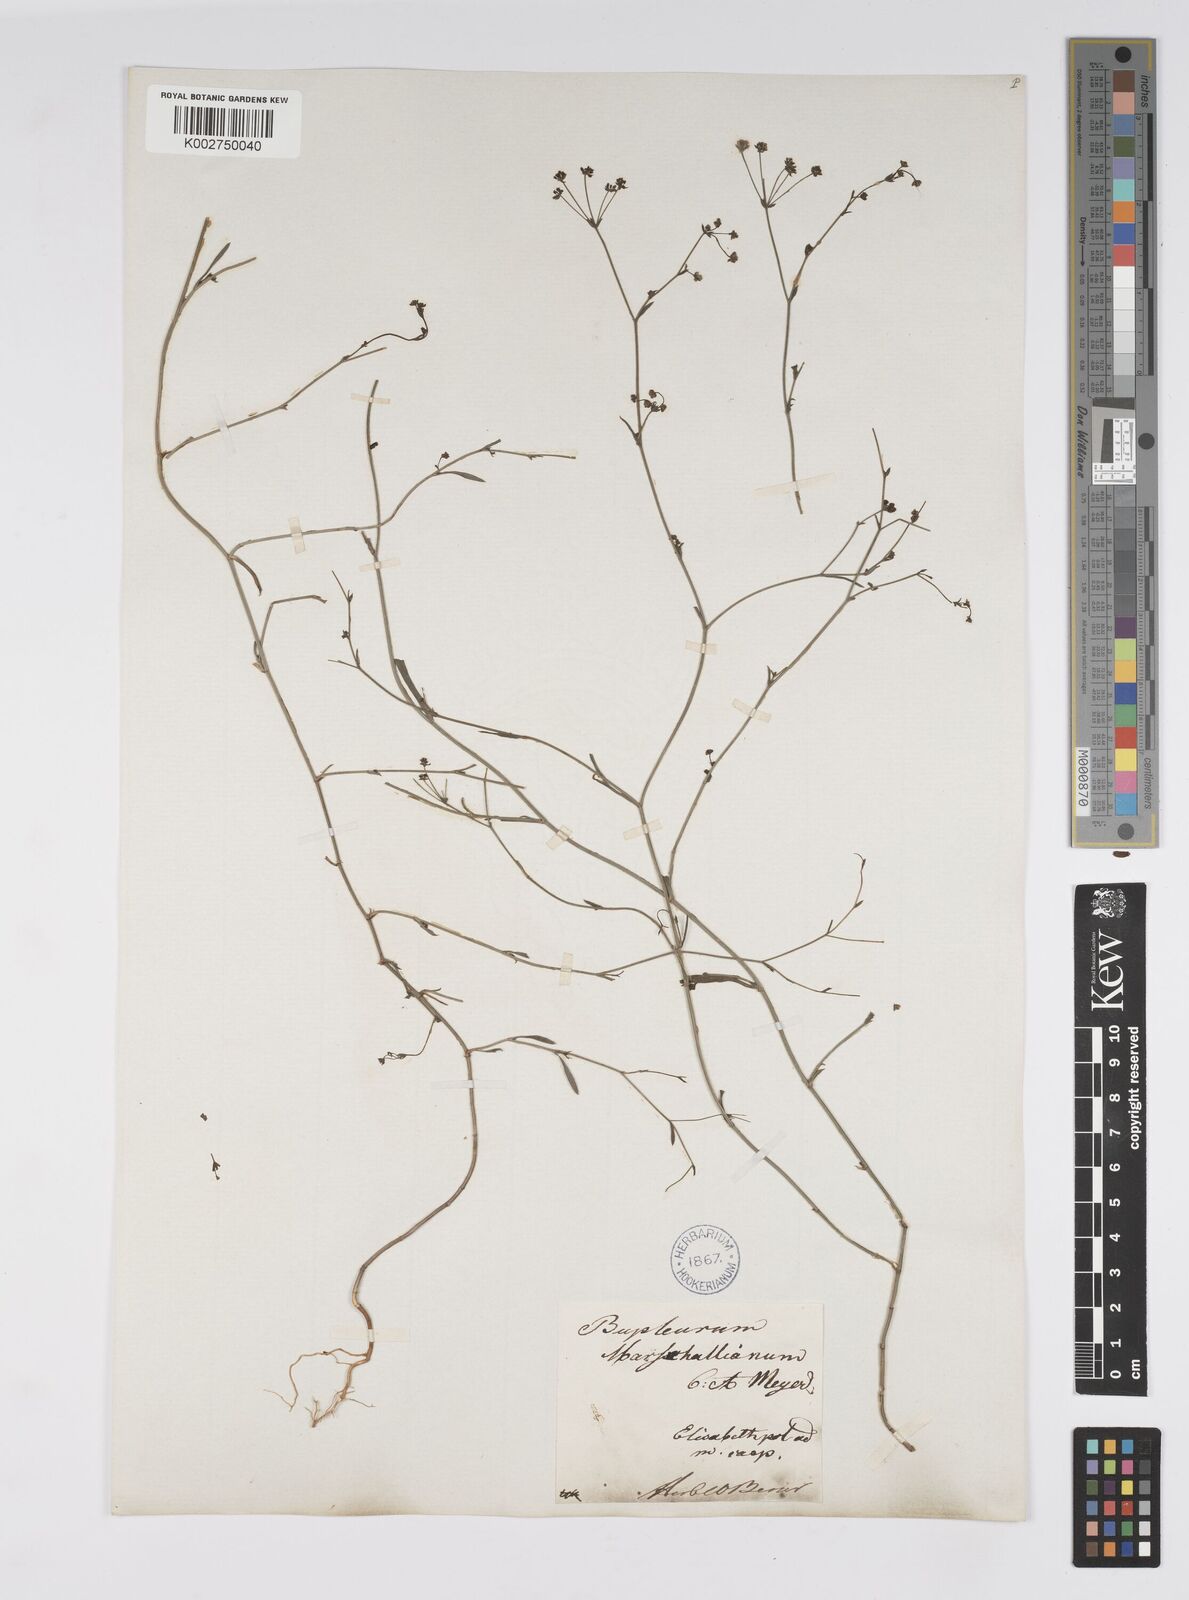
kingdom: Plantae
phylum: Tracheophyta
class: Magnoliopsida
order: Apiales
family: Apiaceae
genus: Bupleurum
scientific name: Bupleurum marschallianum
